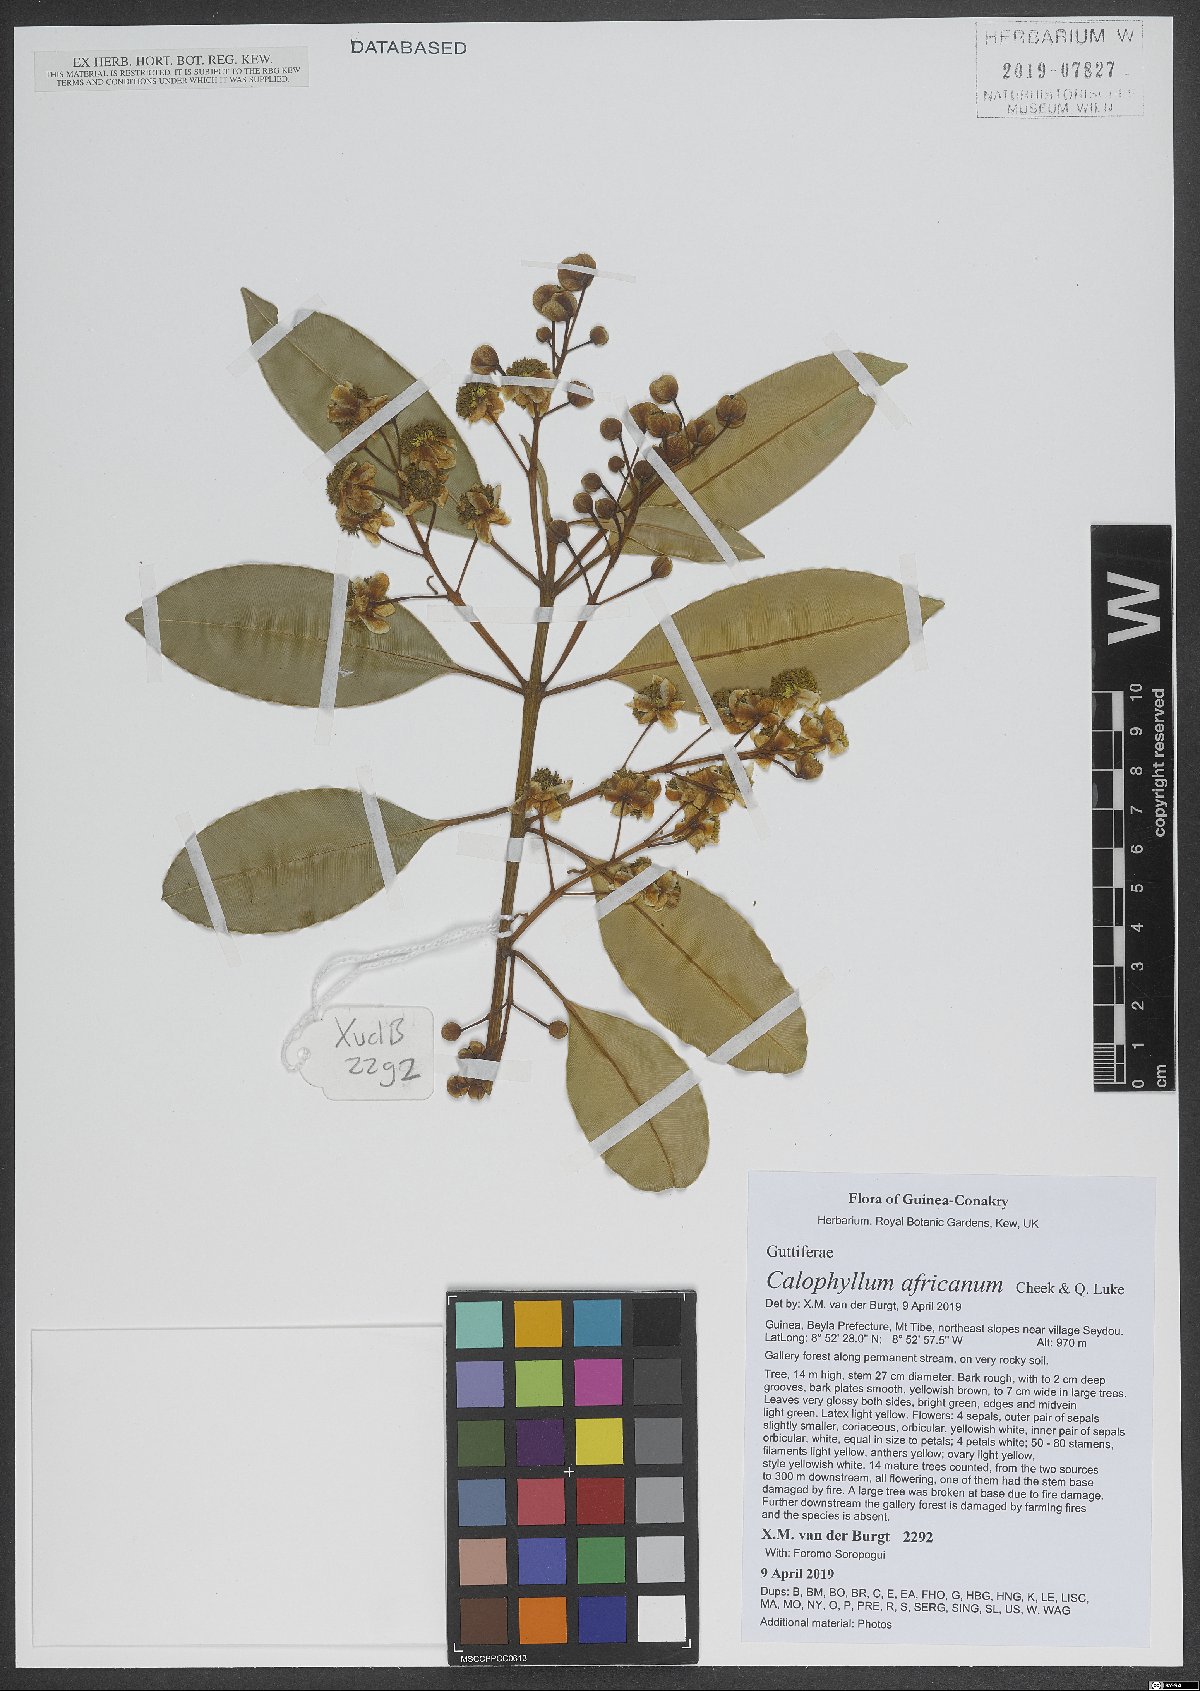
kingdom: Plantae
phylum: Tracheophyta
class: Magnoliopsida
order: Malpighiales
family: Calophyllaceae
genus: Calophyllum
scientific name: Calophyllum africanum
